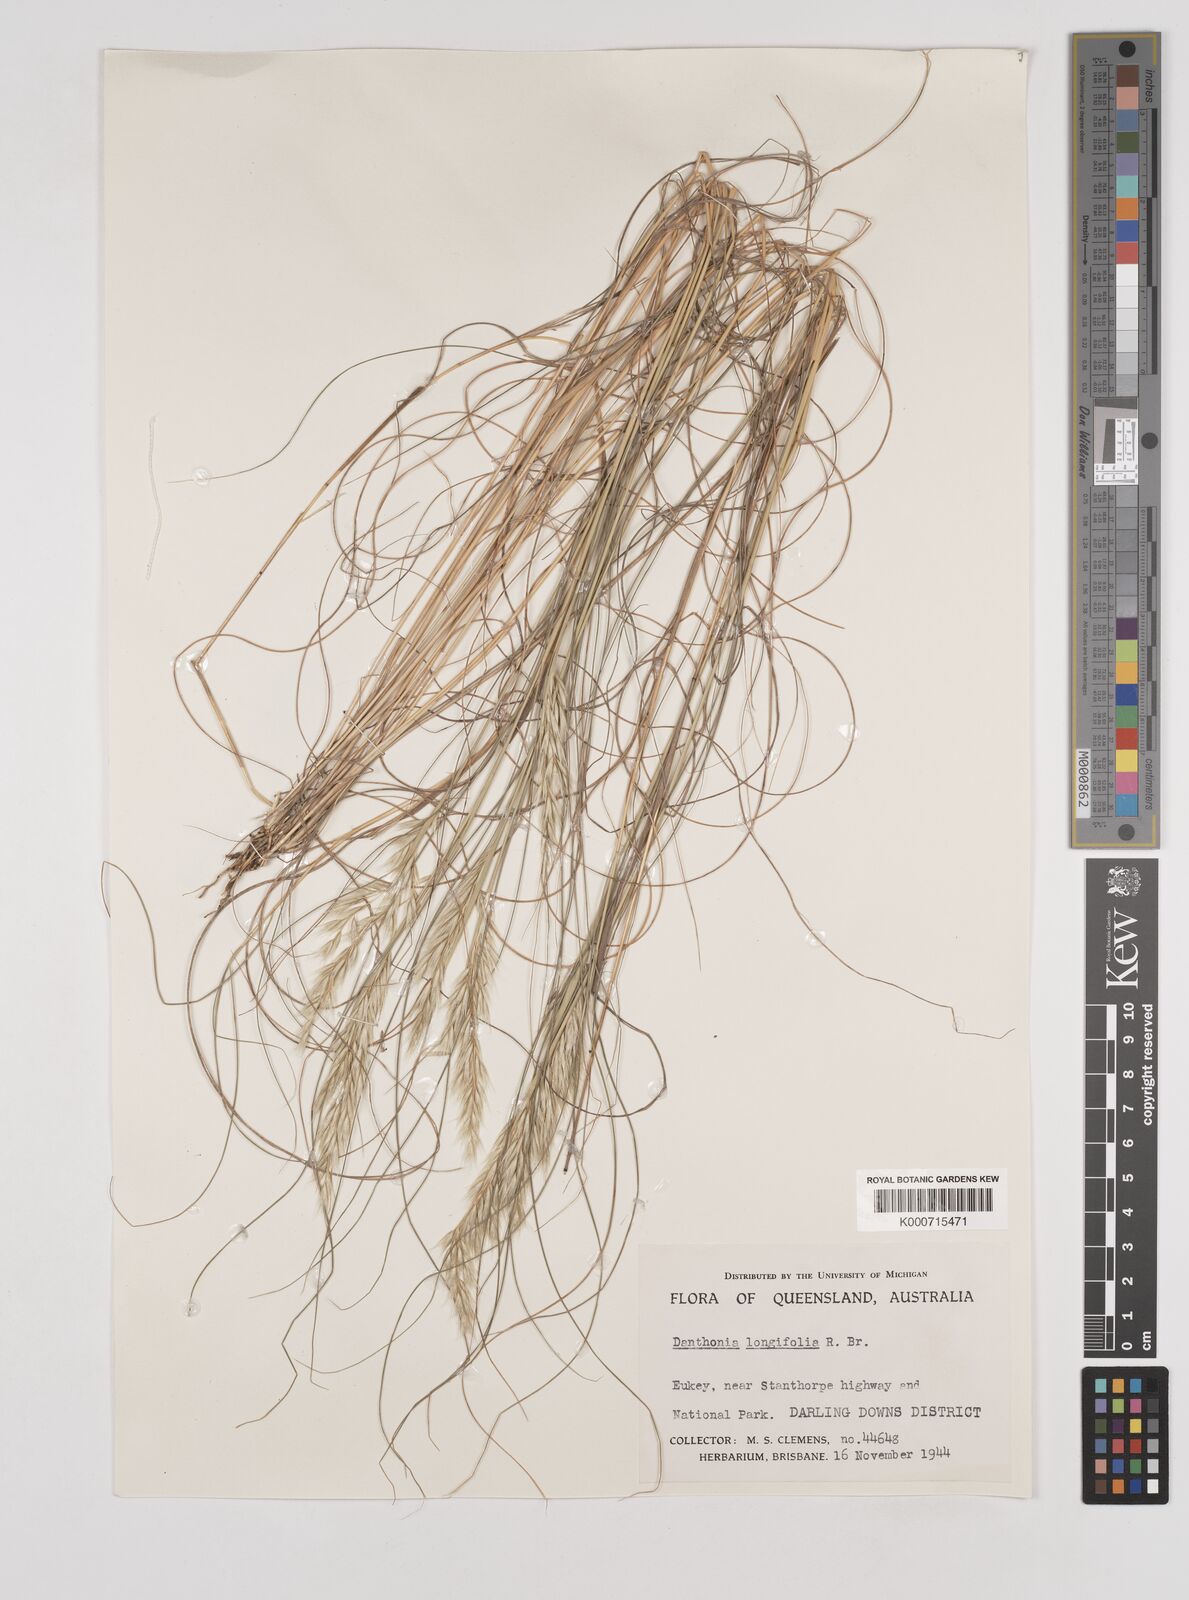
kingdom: Plantae
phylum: Tracheophyta
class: Liliopsida
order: Poales
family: Poaceae
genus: Rytidosperma
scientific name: Rytidosperma longifolium
